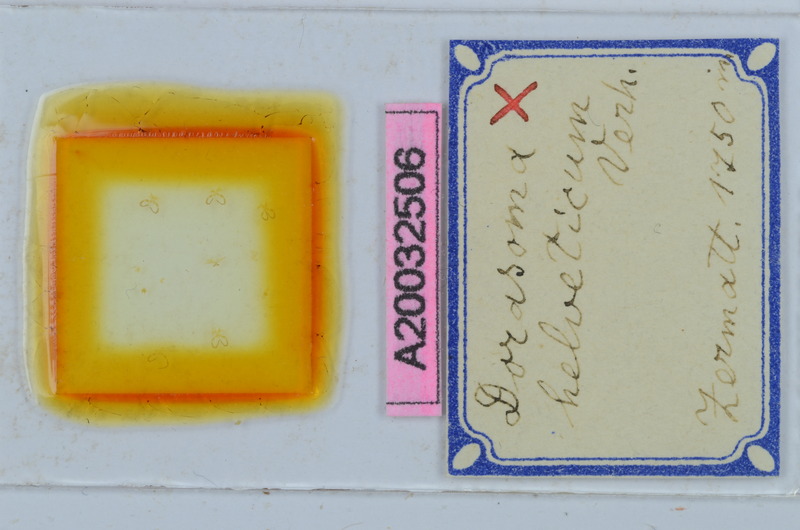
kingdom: Animalia
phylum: Arthropoda
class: Diplopoda
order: Chordeumatida
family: Craspedosomatidae
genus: Bomogona
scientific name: Bomogona helvetica
